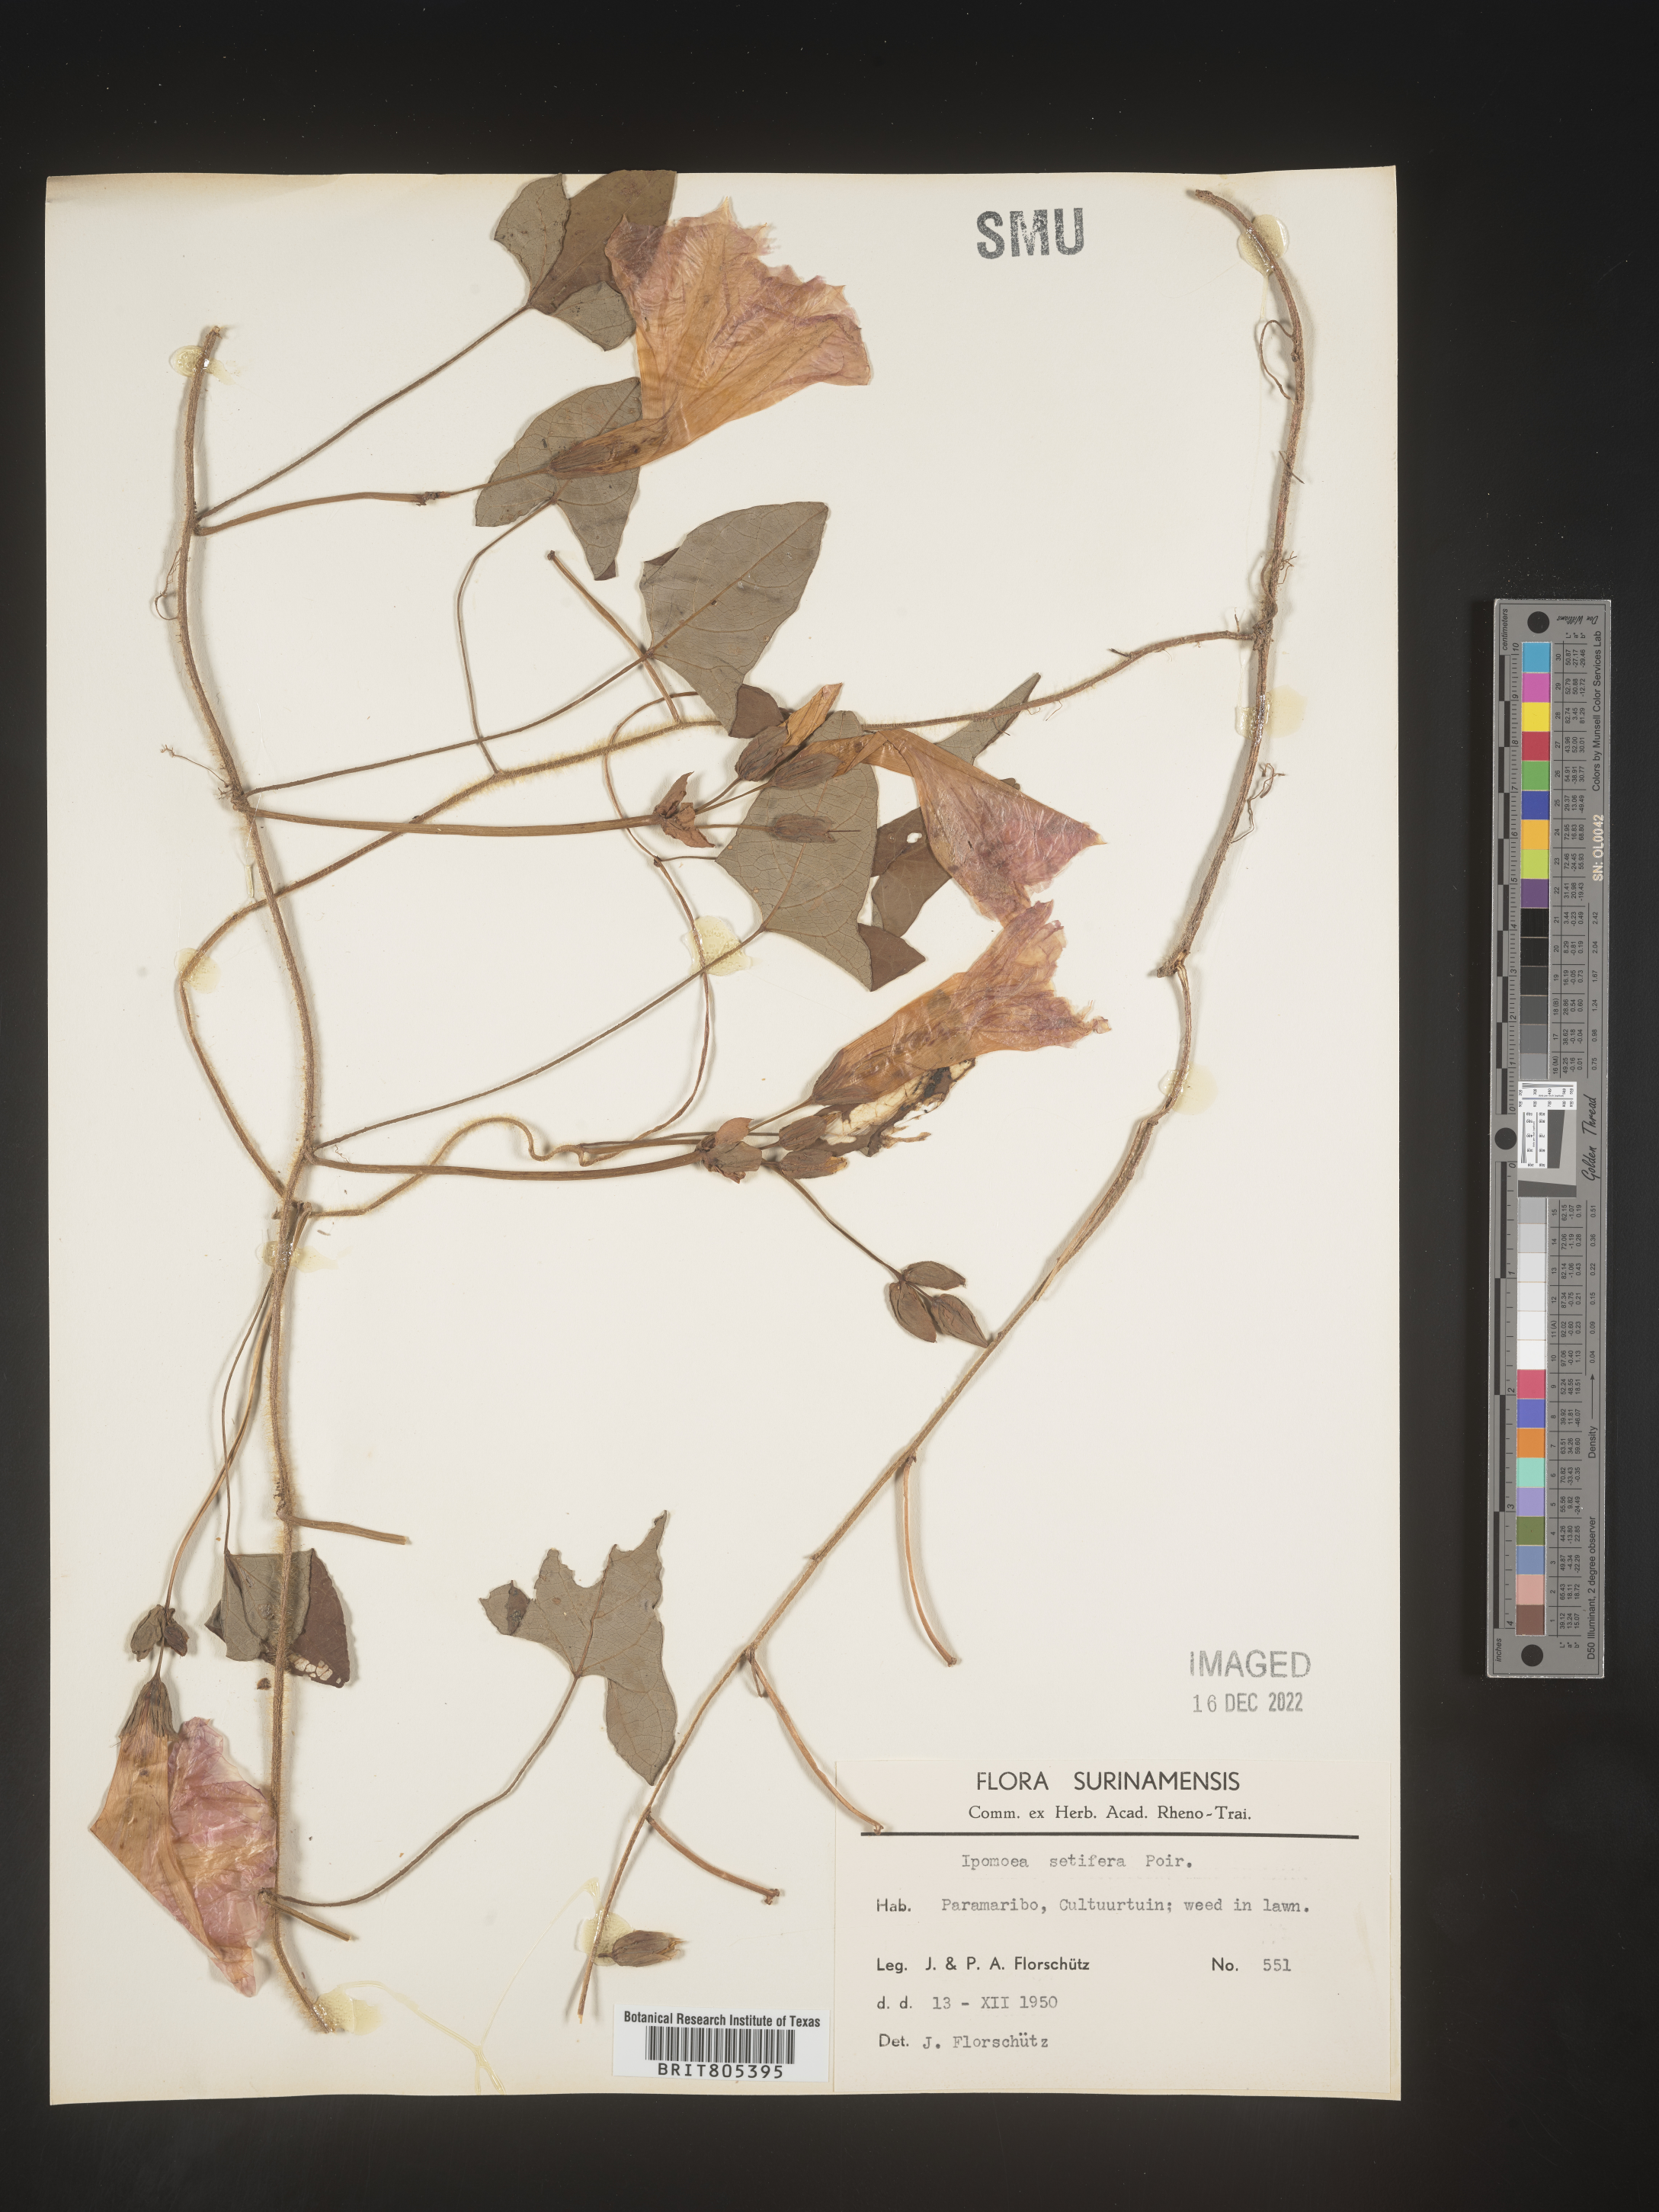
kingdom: Plantae
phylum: Tracheophyta
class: Magnoliopsida
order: Solanales
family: Convolvulaceae
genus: Ipomoea
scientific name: Ipomoea
